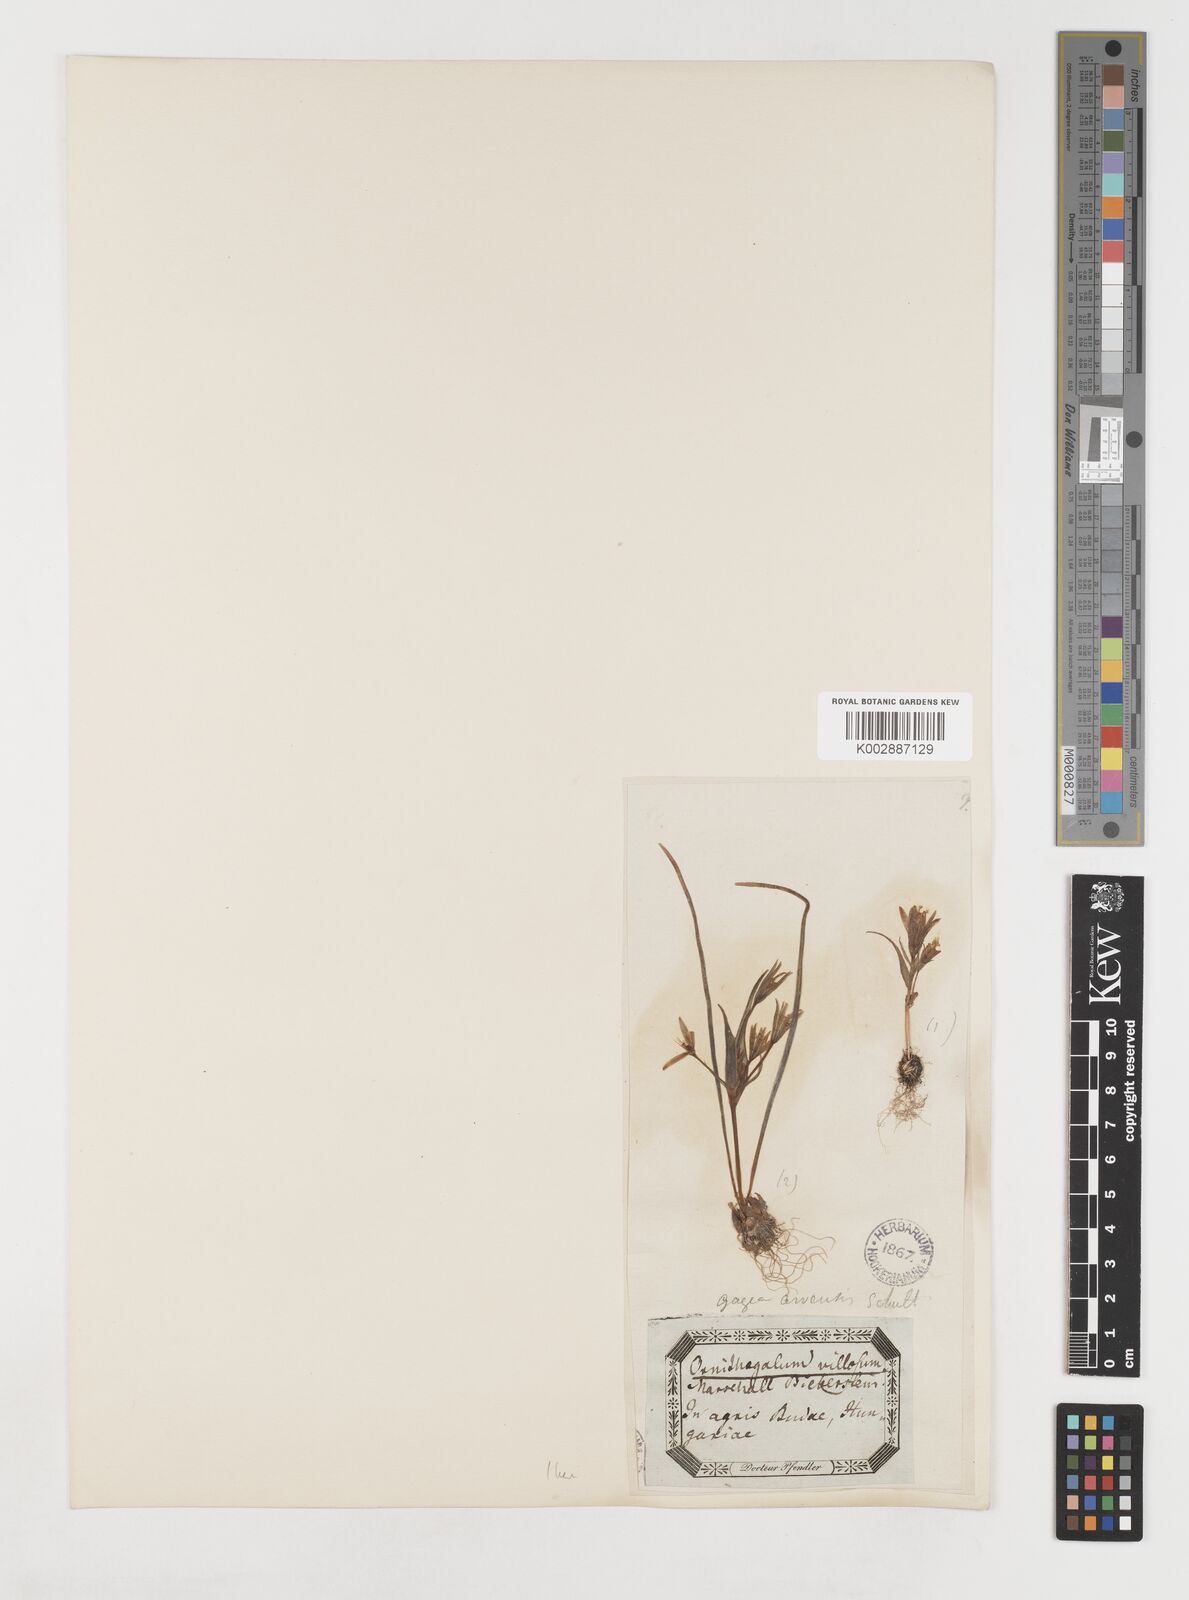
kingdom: Plantae
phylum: Tracheophyta
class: Liliopsida
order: Liliales
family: Liliaceae
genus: Gagea
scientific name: Gagea minima
